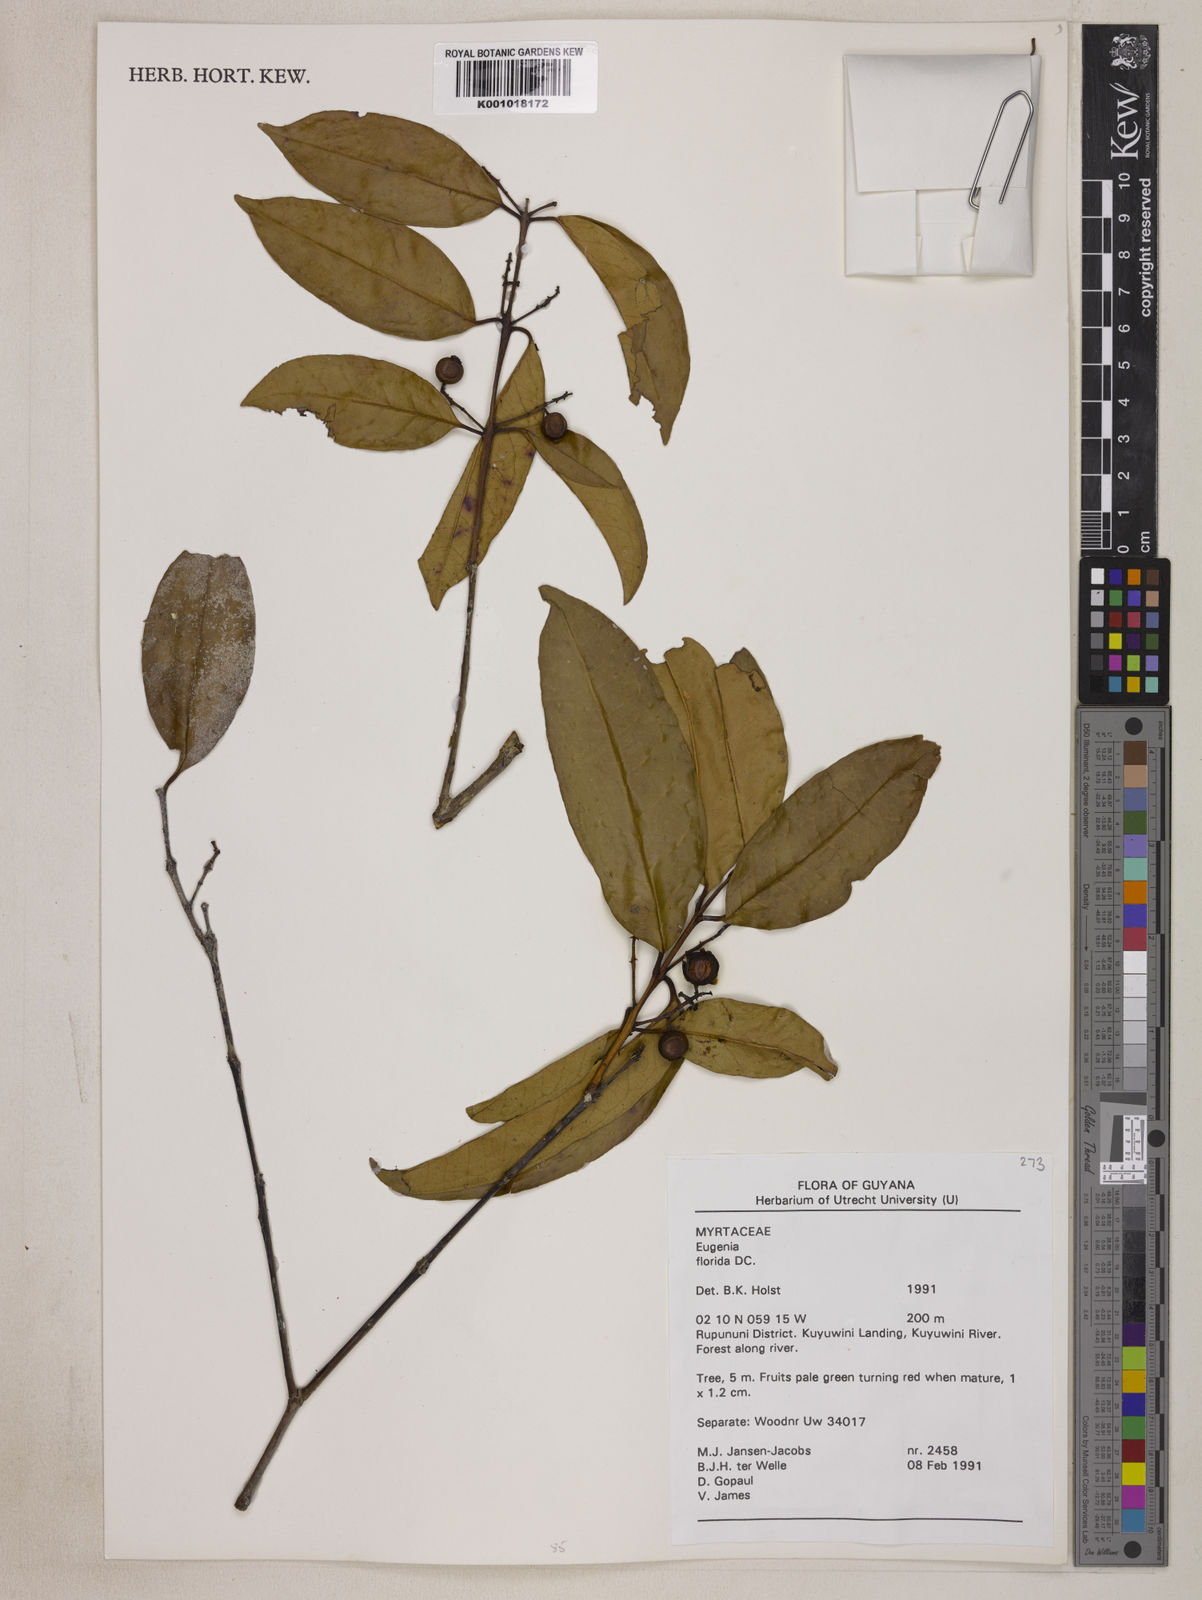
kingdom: Plantae
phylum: Tracheophyta
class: Magnoliopsida
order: Myrtales
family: Myrtaceae
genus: Eugenia
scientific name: Eugenia florida
